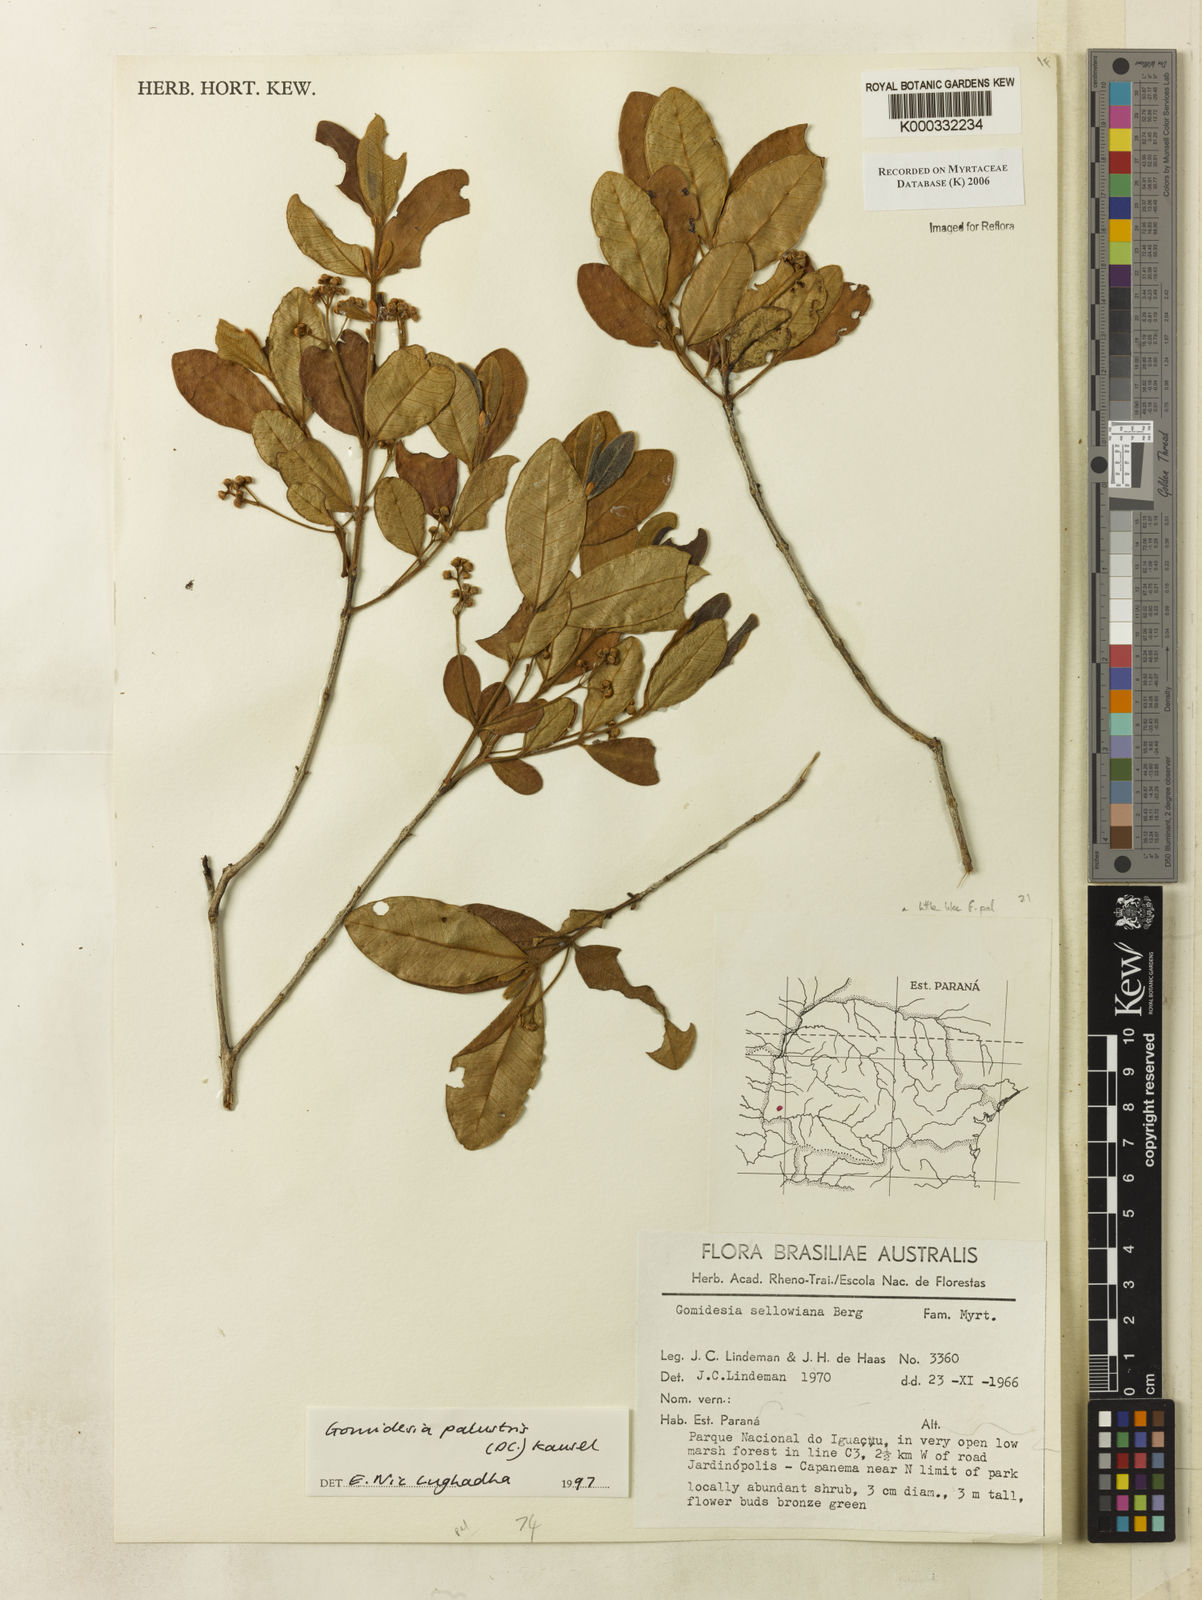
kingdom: Plantae
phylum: Tracheophyta
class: Magnoliopsida
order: Myrtales
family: Myrtaceae
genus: Myrcia
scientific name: Myrcia palustris
